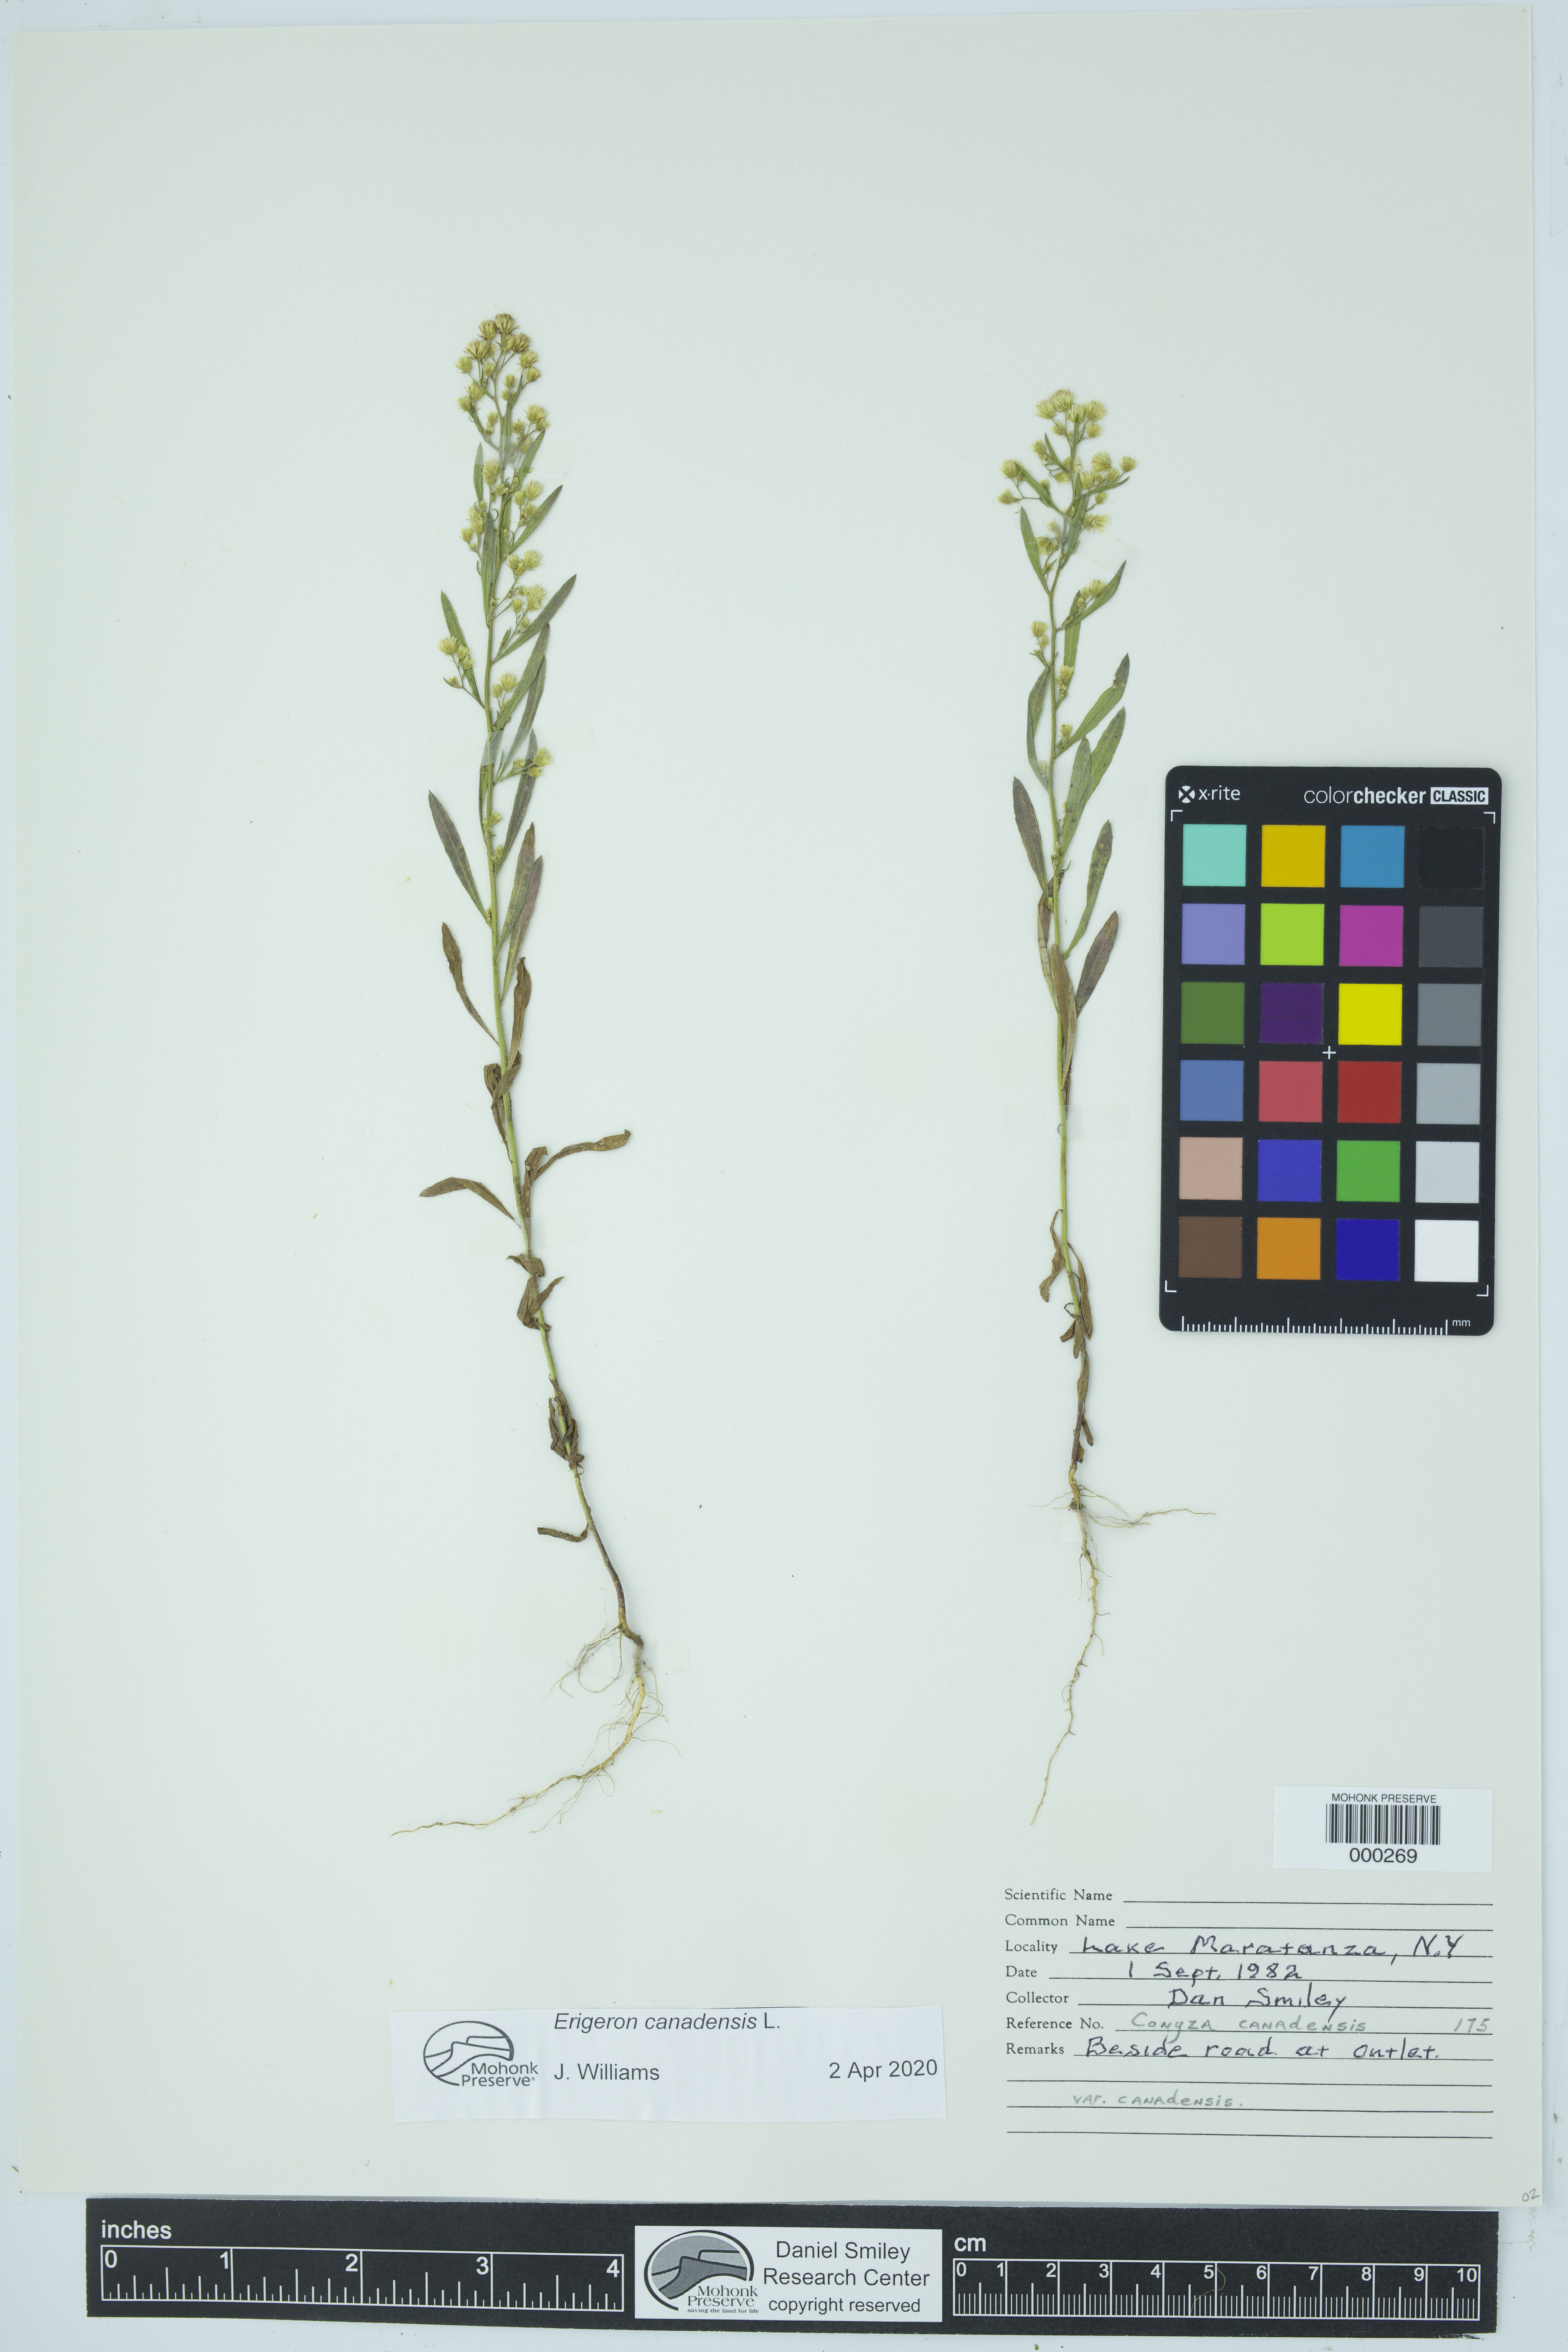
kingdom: Plantae
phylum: Tracheophyta
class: Magnoliopsida
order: Asterales
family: Asteraceae
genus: Erigeron
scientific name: Erigeron canadensis
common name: Canadian fleabane
